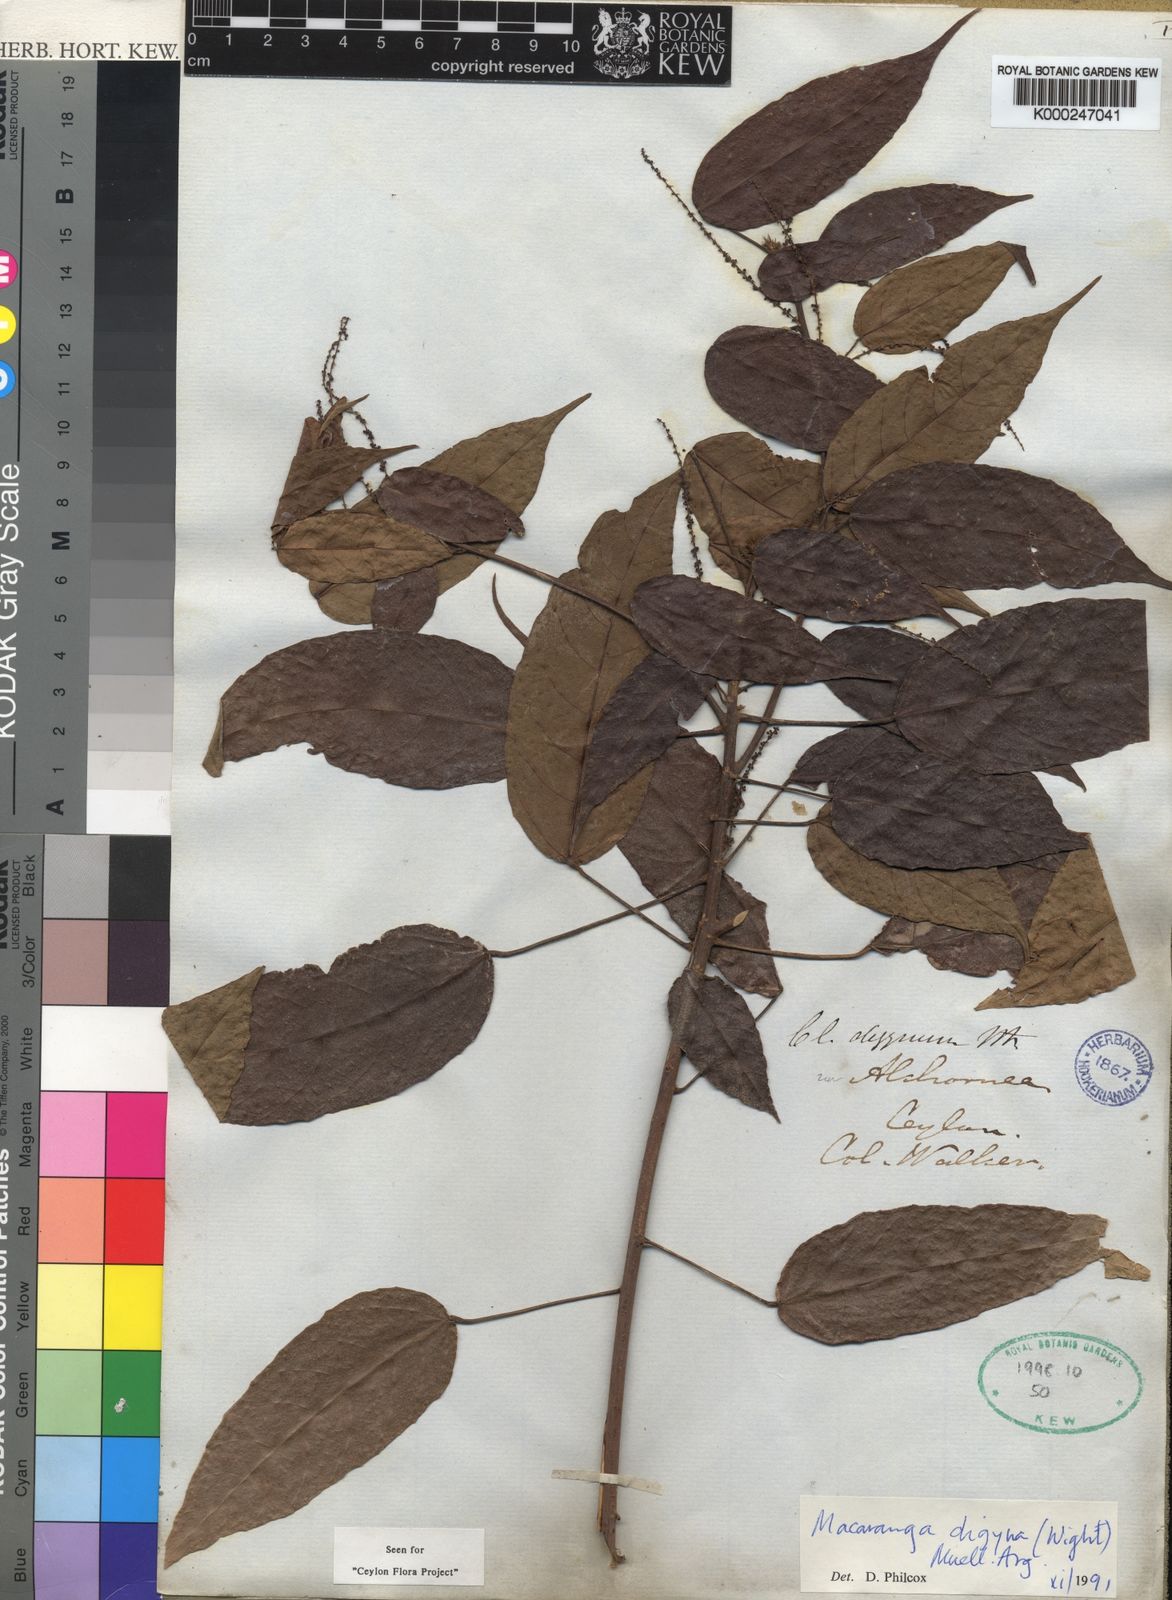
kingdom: Plantae
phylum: Tracheophyta
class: Magnoliopsida
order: Malpighiales
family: Euphorbiaceae
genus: Macaranga
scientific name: Macaranga
